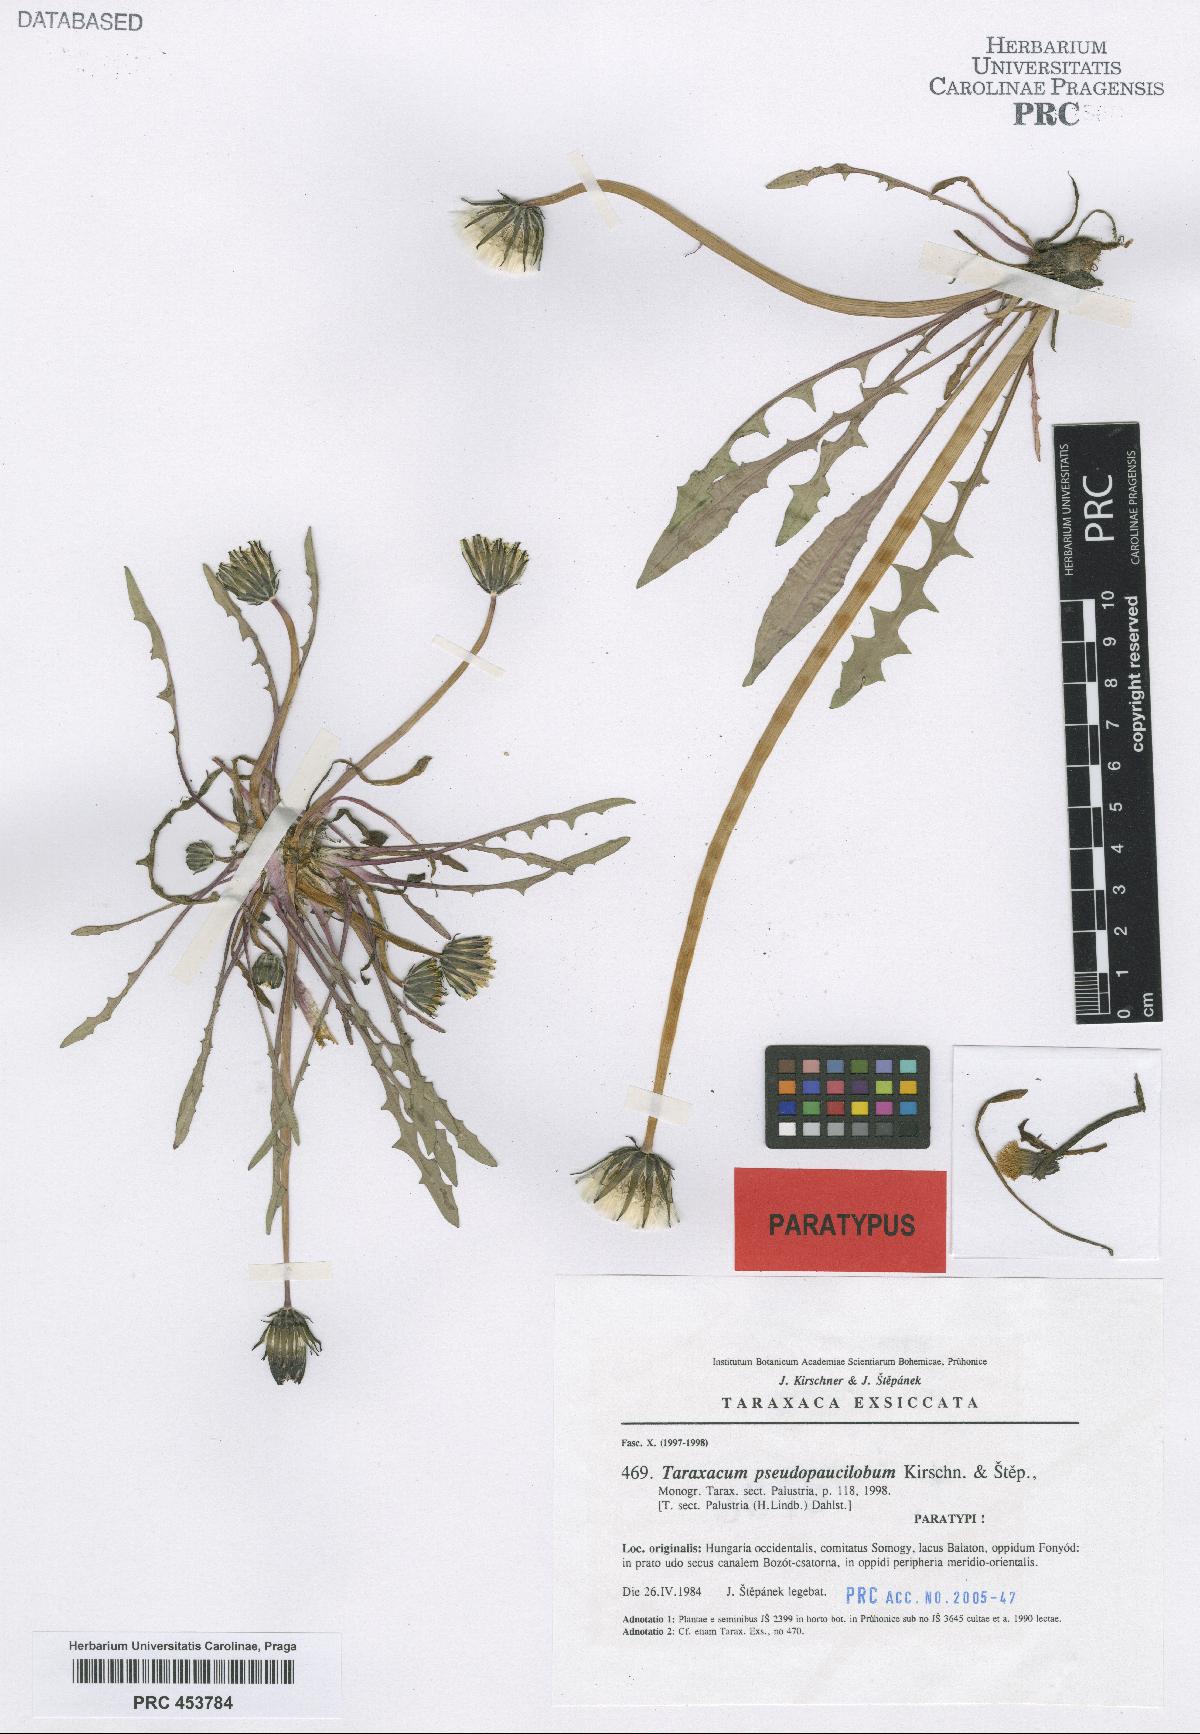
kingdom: Plantae
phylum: Tracheophyta
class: Magnoliopsida
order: Asterales
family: Asteraceae
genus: Taraxacum
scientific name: Taraxacum pseudopaucilobum
